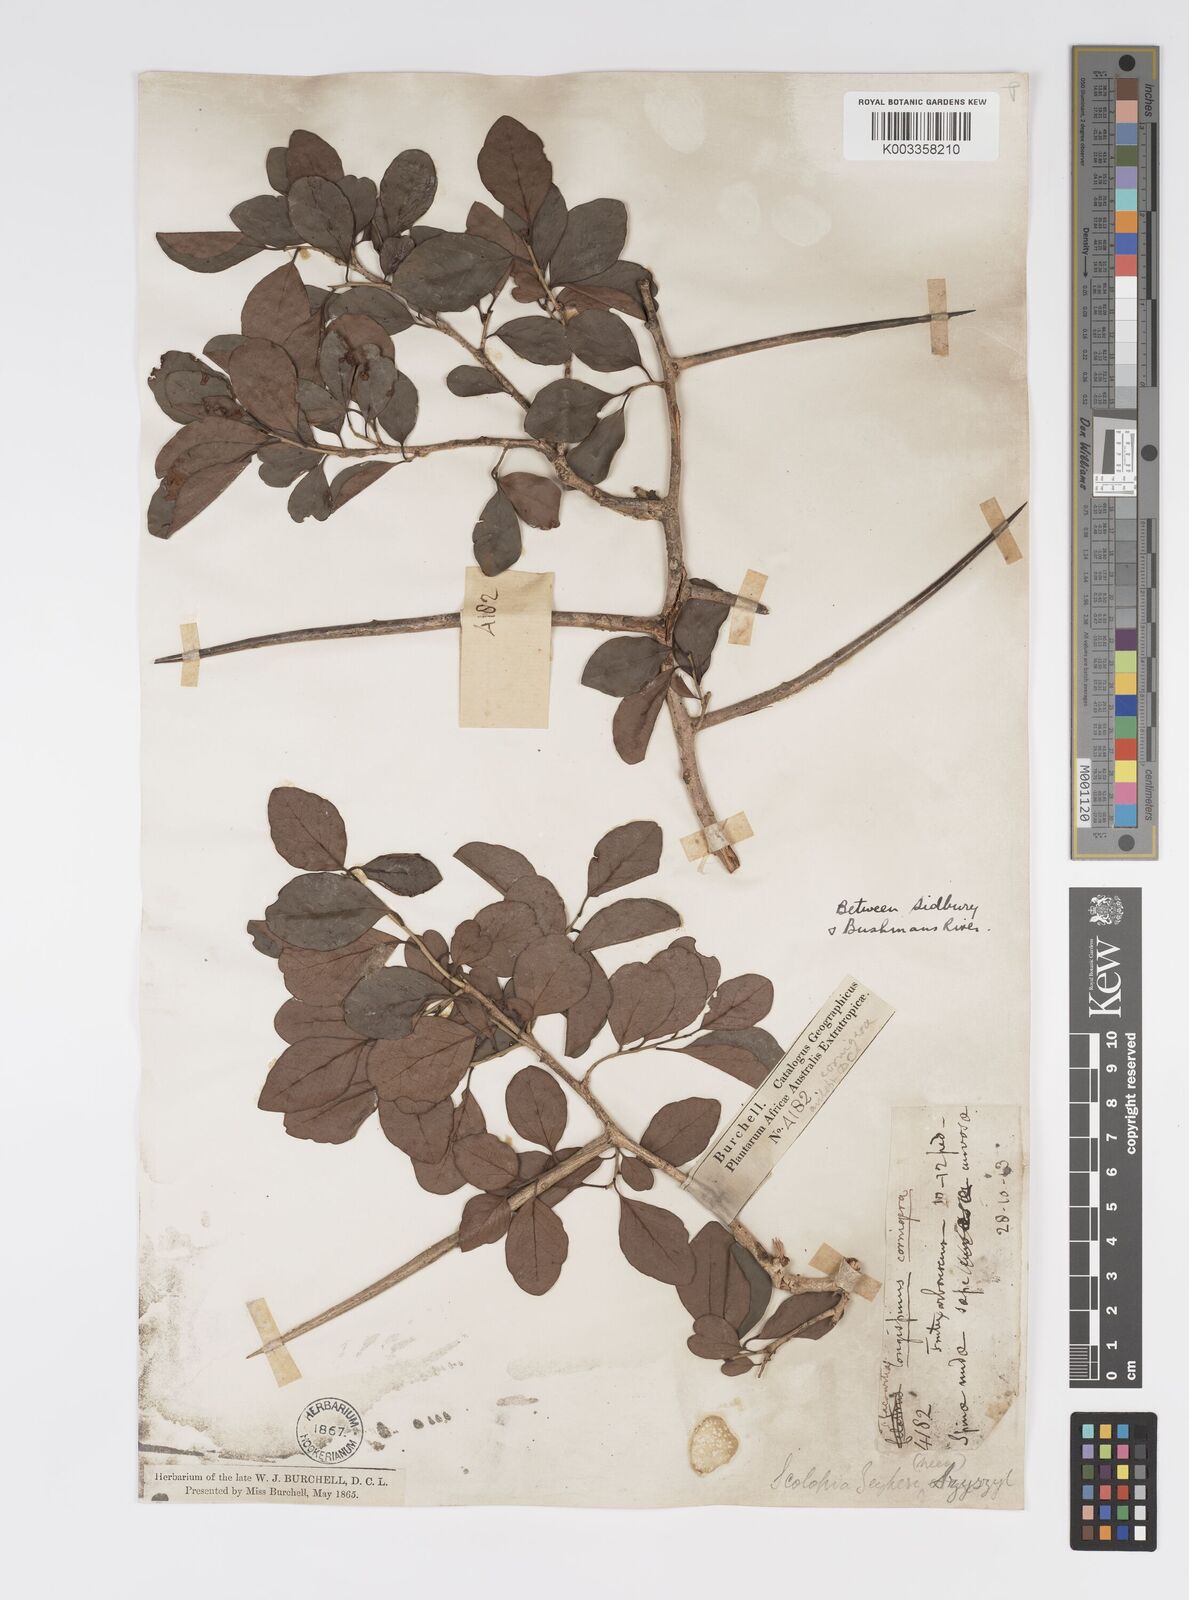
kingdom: Plantae
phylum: Tracheophyta
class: Magnoliopsida
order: Malpighiales
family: Salicaceae
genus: Scolopia
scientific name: Scolopia zeyheri
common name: Thorn pear
